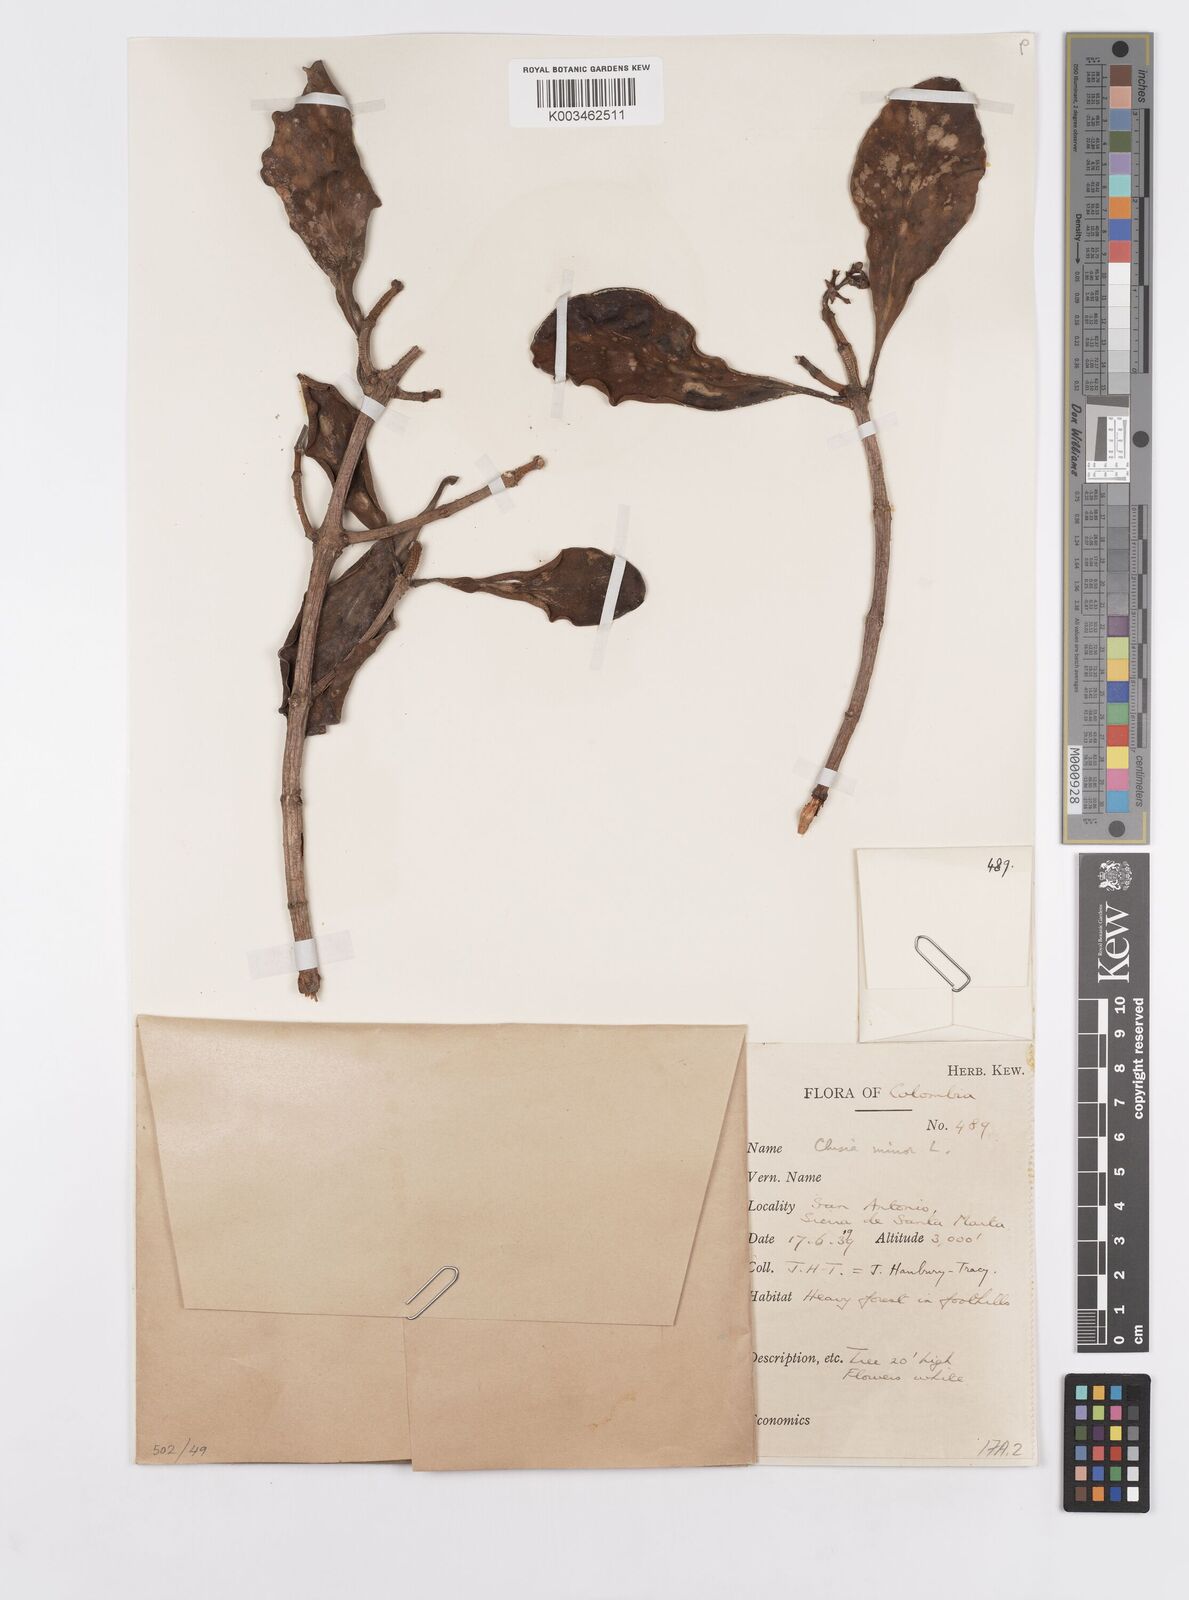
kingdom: Plantae
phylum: Tracheophyta
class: Magnoliopsida
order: Malpighiales
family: Clusiaceae
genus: Clusia
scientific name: Clusia minor
